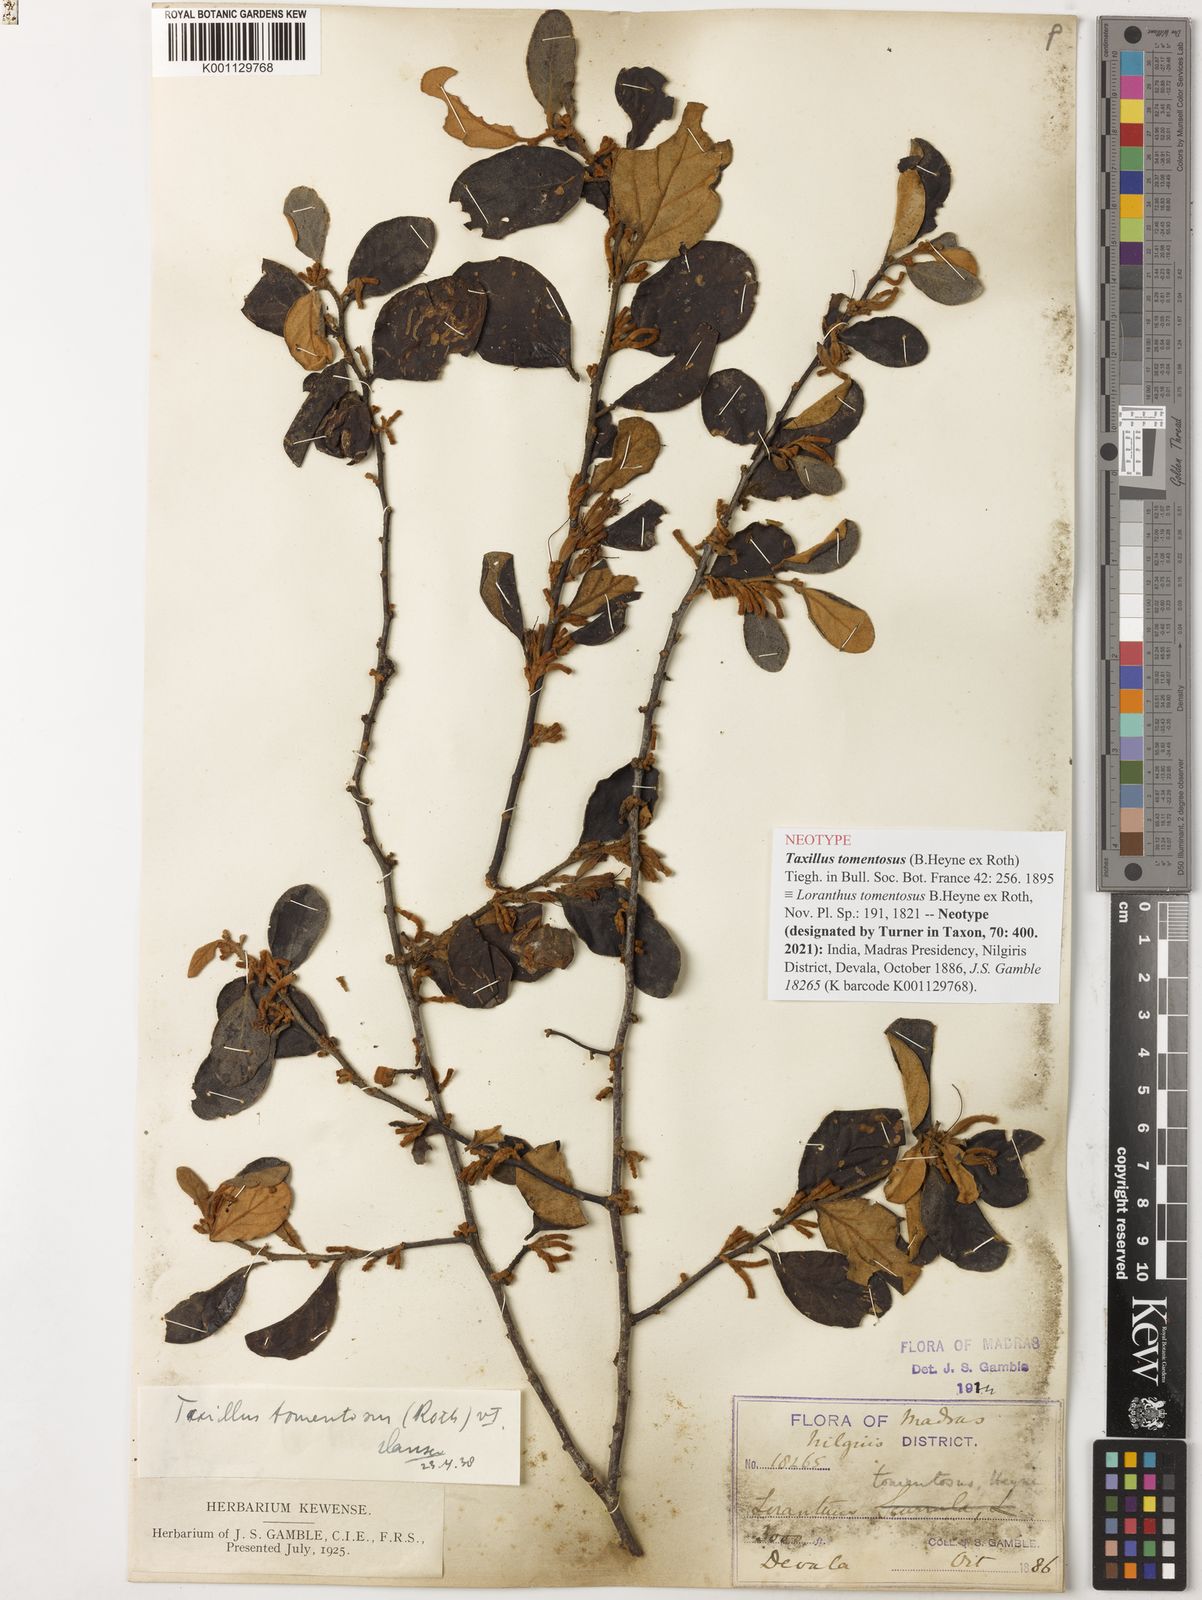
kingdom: Plantae
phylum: Tracheophyta
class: Magnoliopsida
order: Santalales
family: Loranthaceae
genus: Taxillus
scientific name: Taxillus tomentosus
